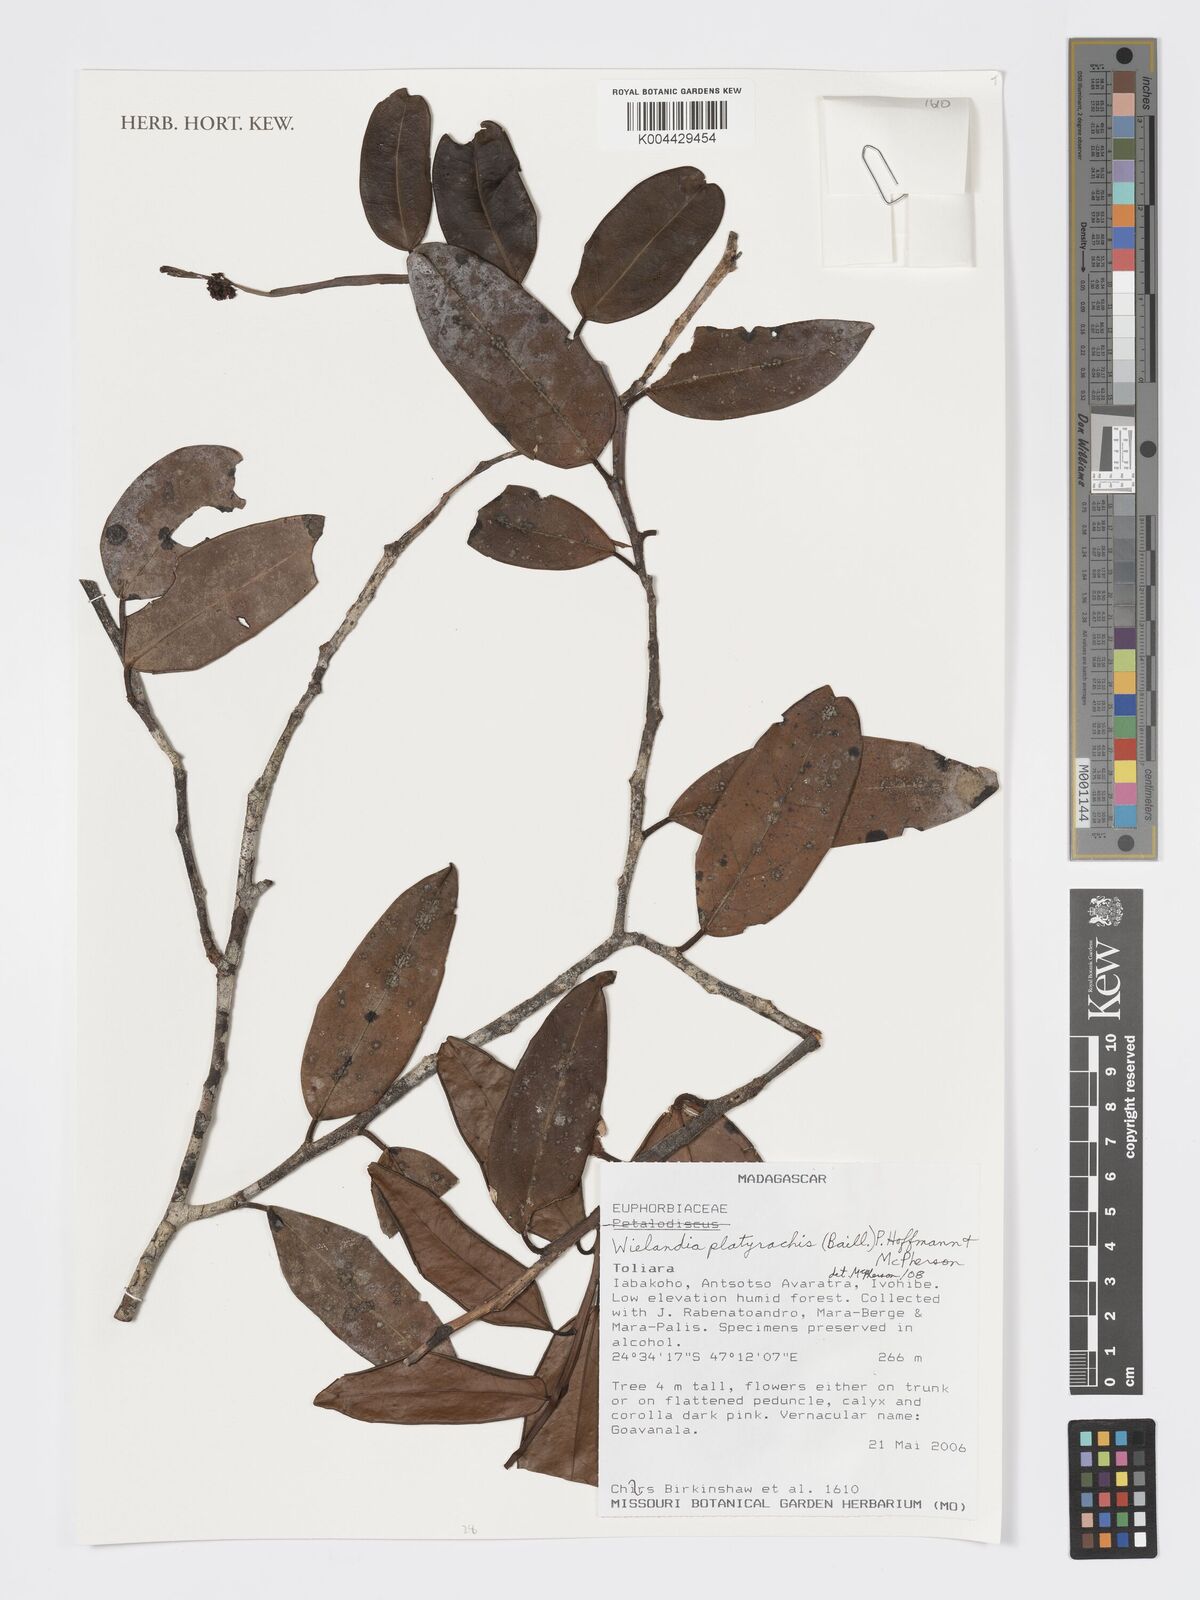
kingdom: Plantae
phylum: Tracheophyta
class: Magnoliopsida
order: Malpighiales
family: Phyllanthaceae
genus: Wielandia
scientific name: Wielandia platyrachis
